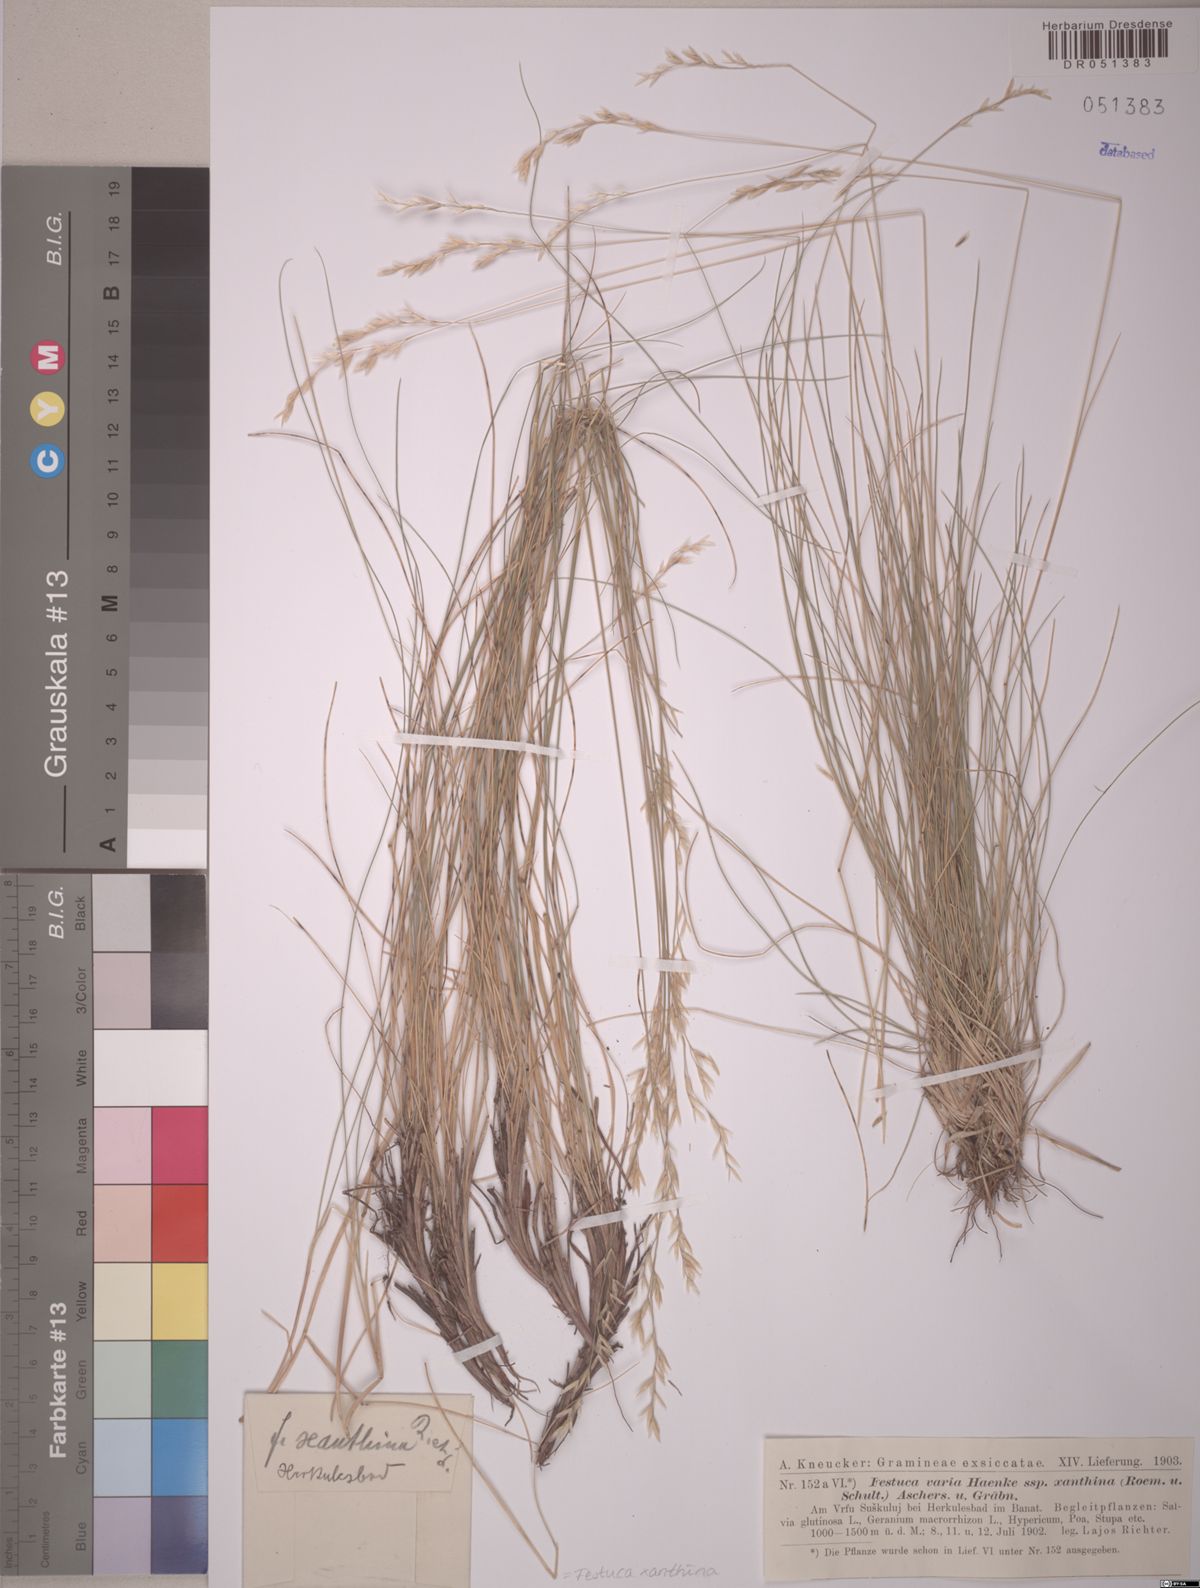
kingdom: Plantae
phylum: Tracheophyta
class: Liliopsida
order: Poales
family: Poaceae
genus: Festuca
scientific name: Festuca xanthina
